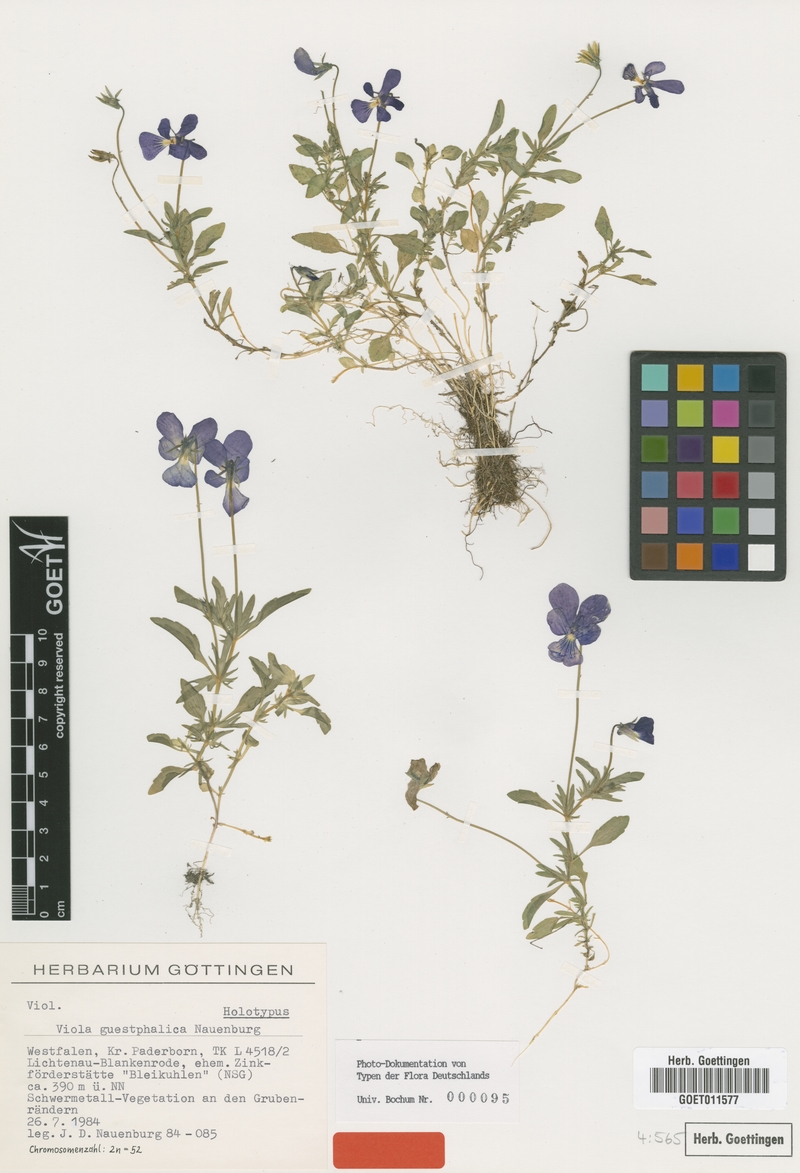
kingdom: Plantae
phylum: Tracheophyta
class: Magnoliopsida
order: Malpighiales
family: Violaceae
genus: Viola
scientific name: Viola lutea
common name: Mountain pansy
